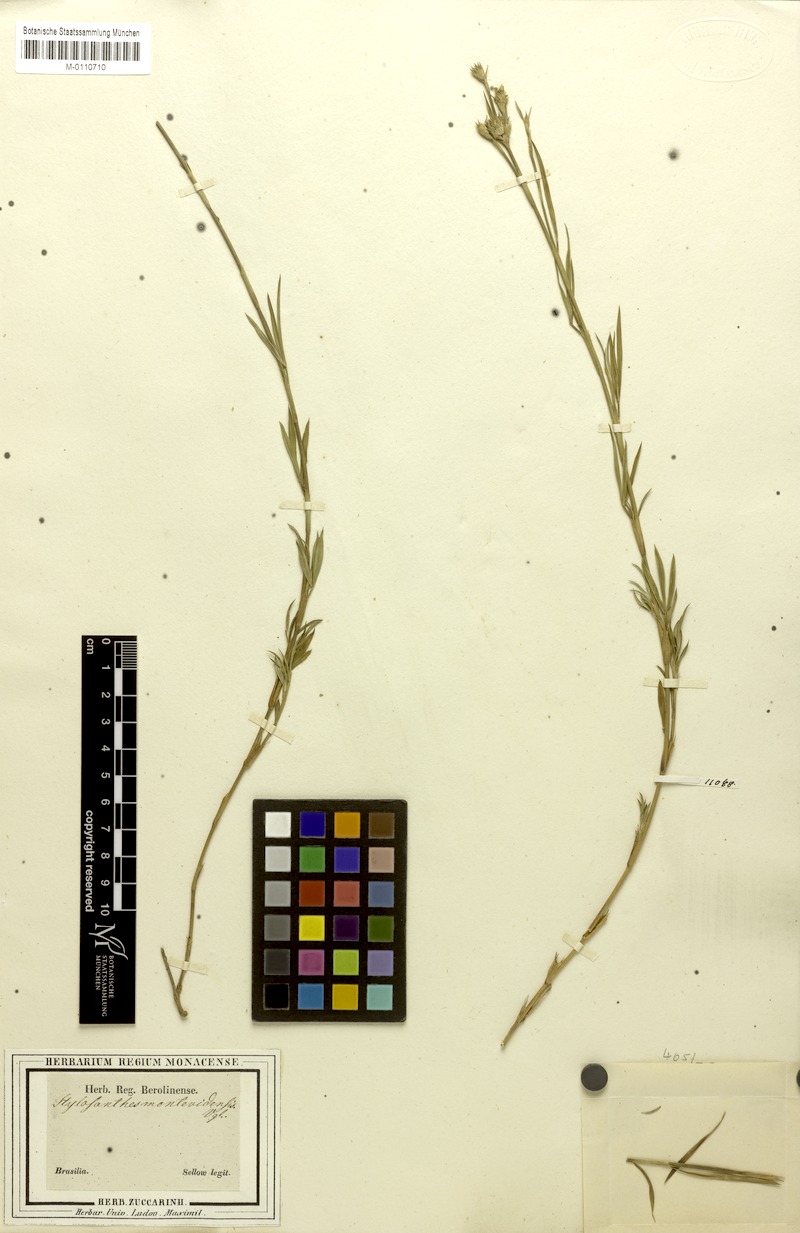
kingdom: Plantae
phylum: Tracheophyta
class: Magnoliopsida
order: Fabales
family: Fabaceae
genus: Stylosanthes
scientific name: Stylosanthes montevidensis
